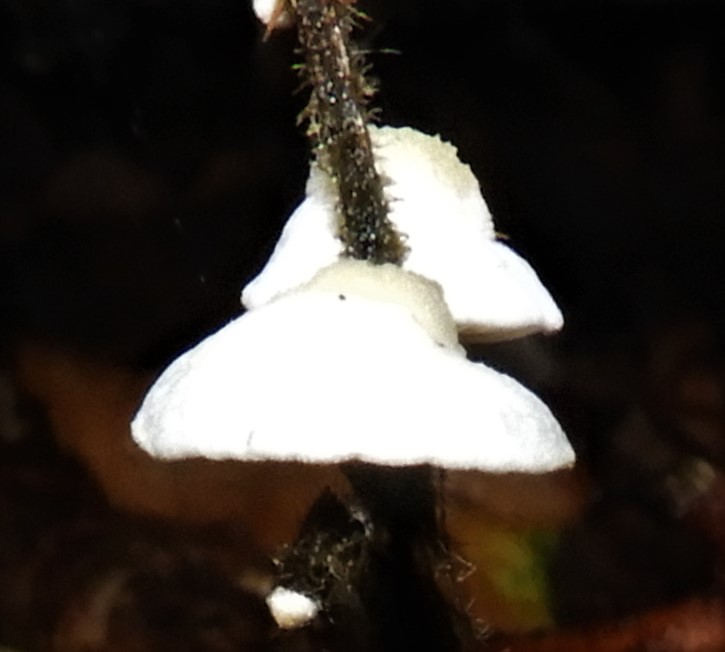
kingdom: Fungi
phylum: Basidiomycota
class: Agaricomycetes
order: Agaricales
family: Crepidotaceae
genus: Crepidotus
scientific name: Crepidotus
